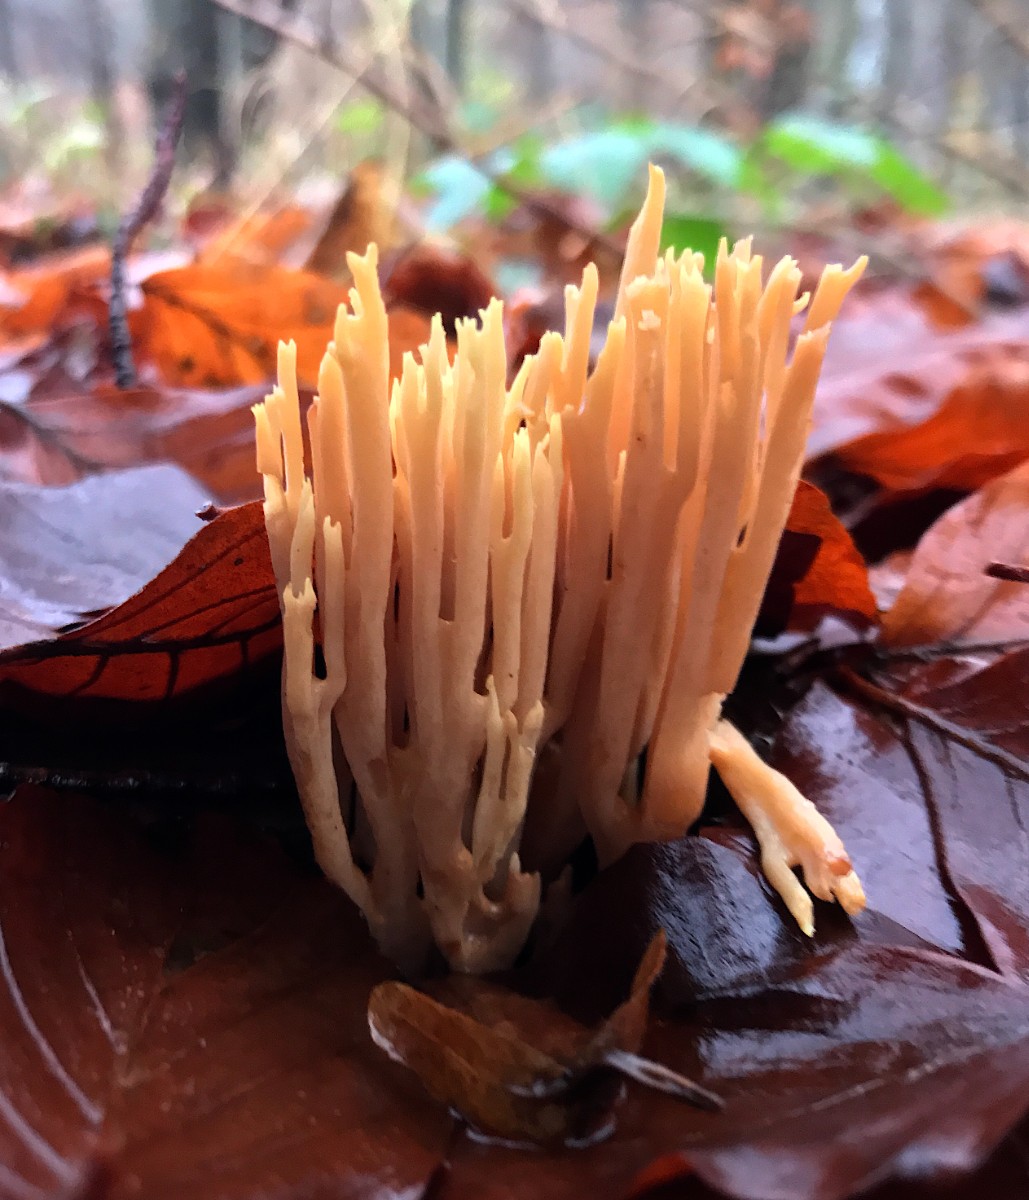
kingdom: Fungi
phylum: Basidiomycota
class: Agaricomycetes
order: Gomphales
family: Gomphaceae
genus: Ramaria
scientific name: Ramaria stricta
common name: rank koralsvamp
